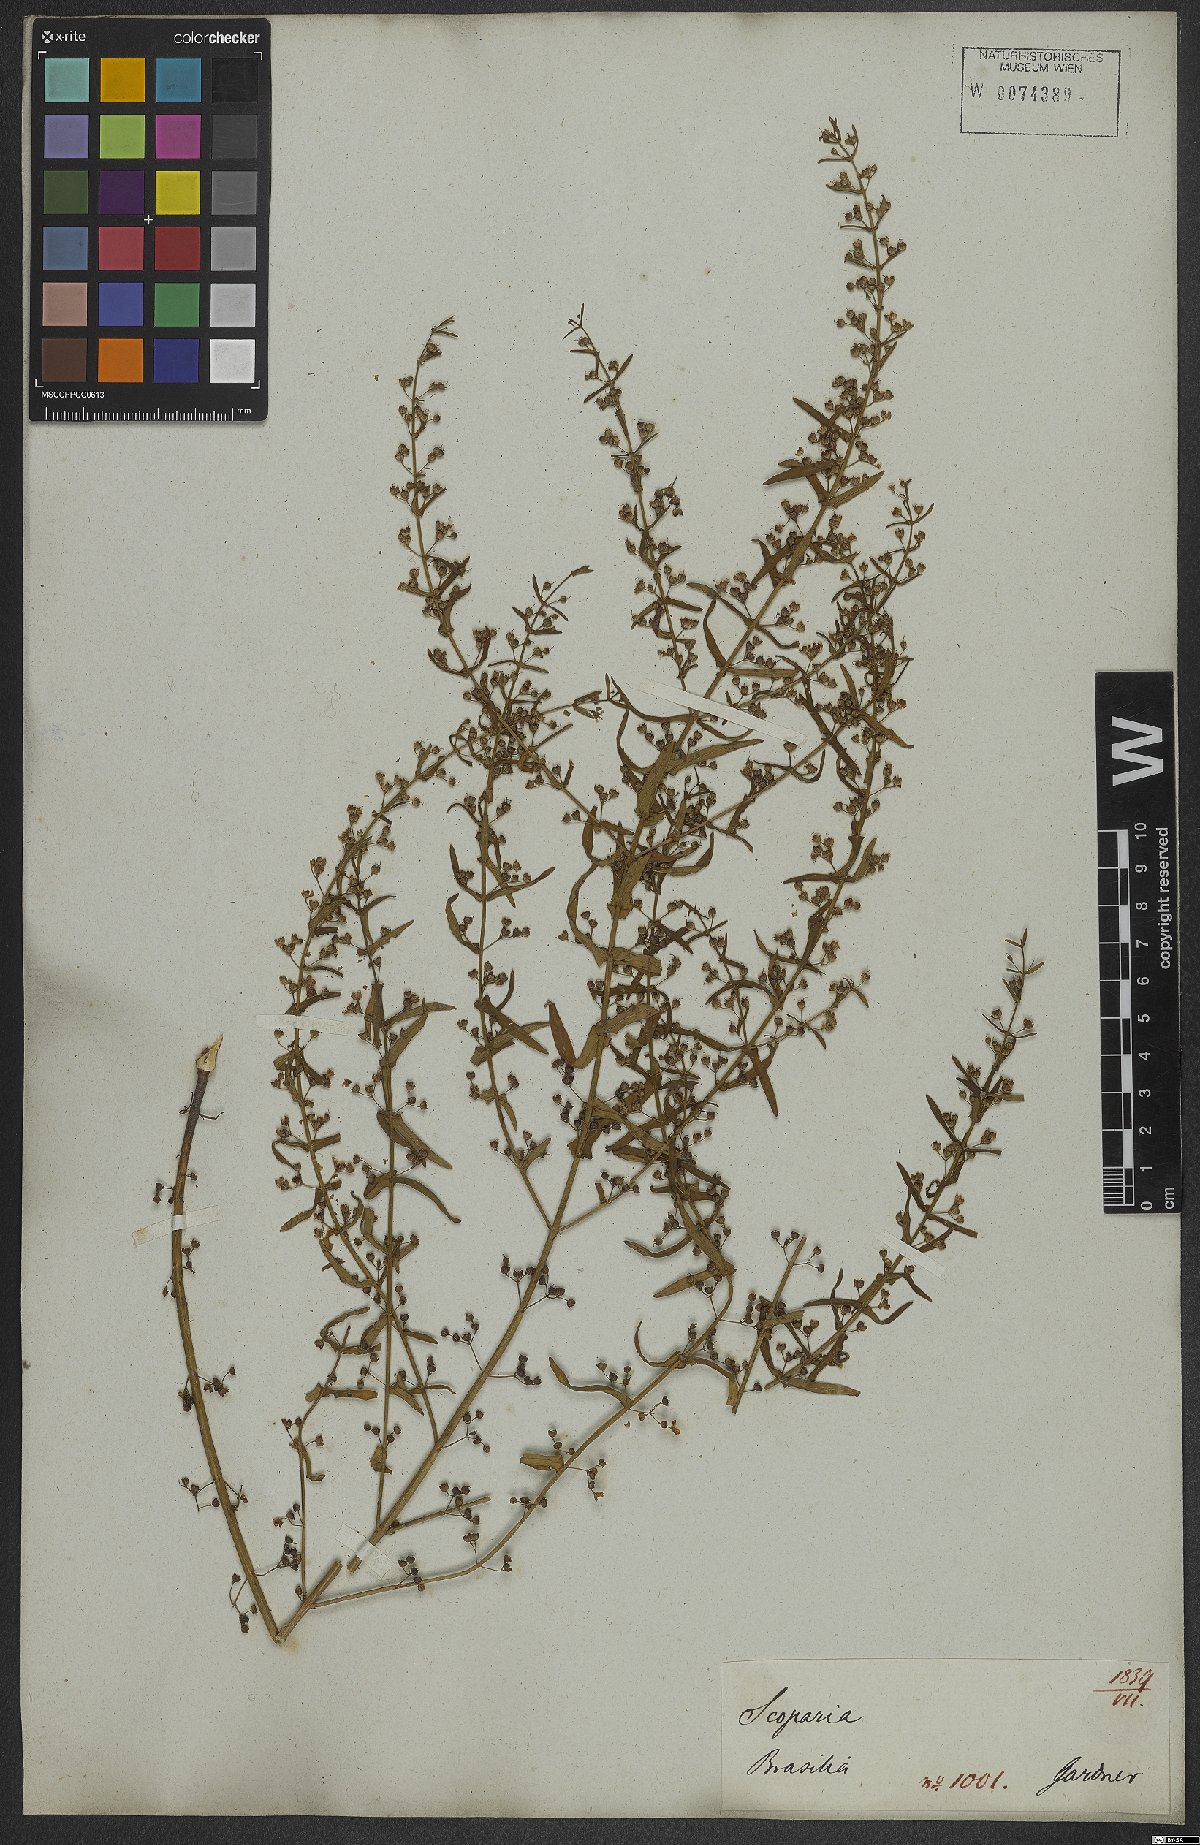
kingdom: Plantae
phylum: Tracheophyta
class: Magnoliopsida
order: Lamiales
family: Plantaginaceae
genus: Scoparia
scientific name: Scoparia dulcis
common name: Scoparia-weed
